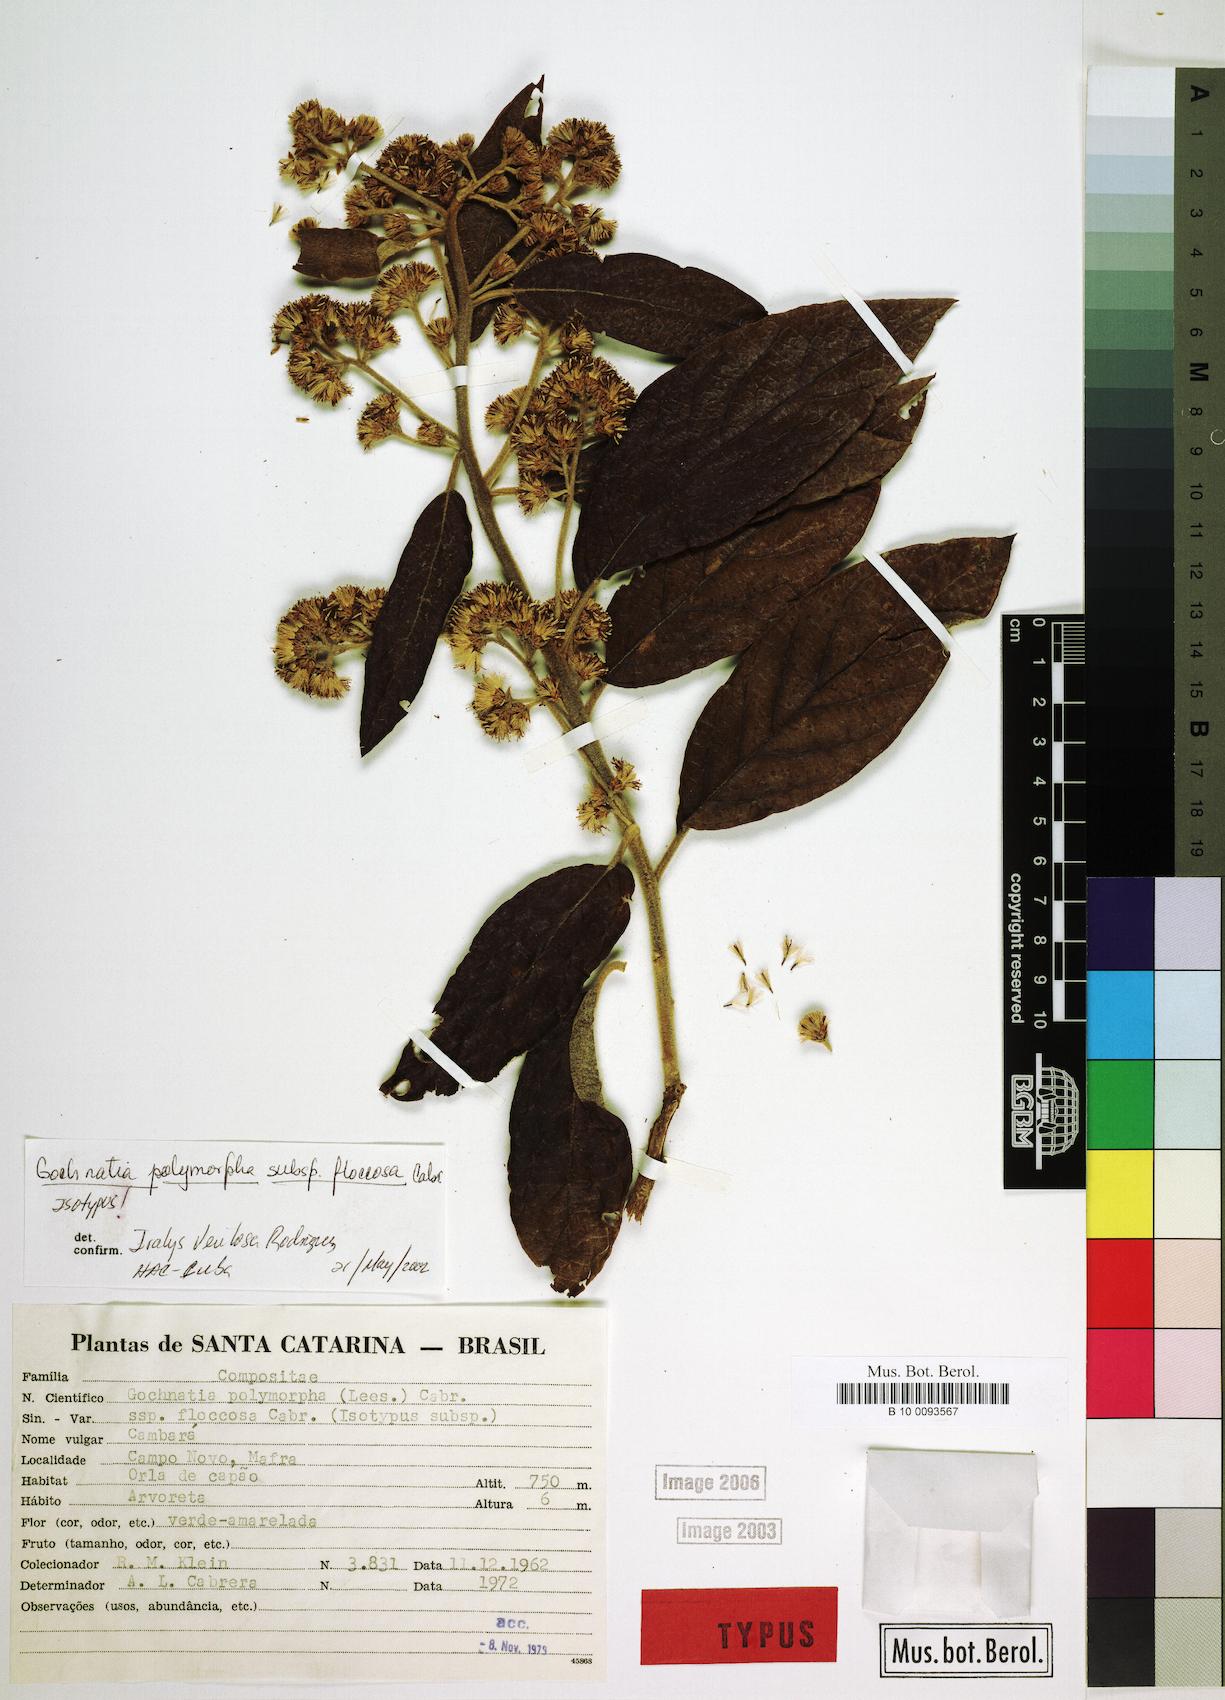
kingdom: Plantae
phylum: Tracheophyta
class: Magnoliopsida
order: Asterales
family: Asteraceae
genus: Moquiniastrum
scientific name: Moquiniastrum polymorphum
